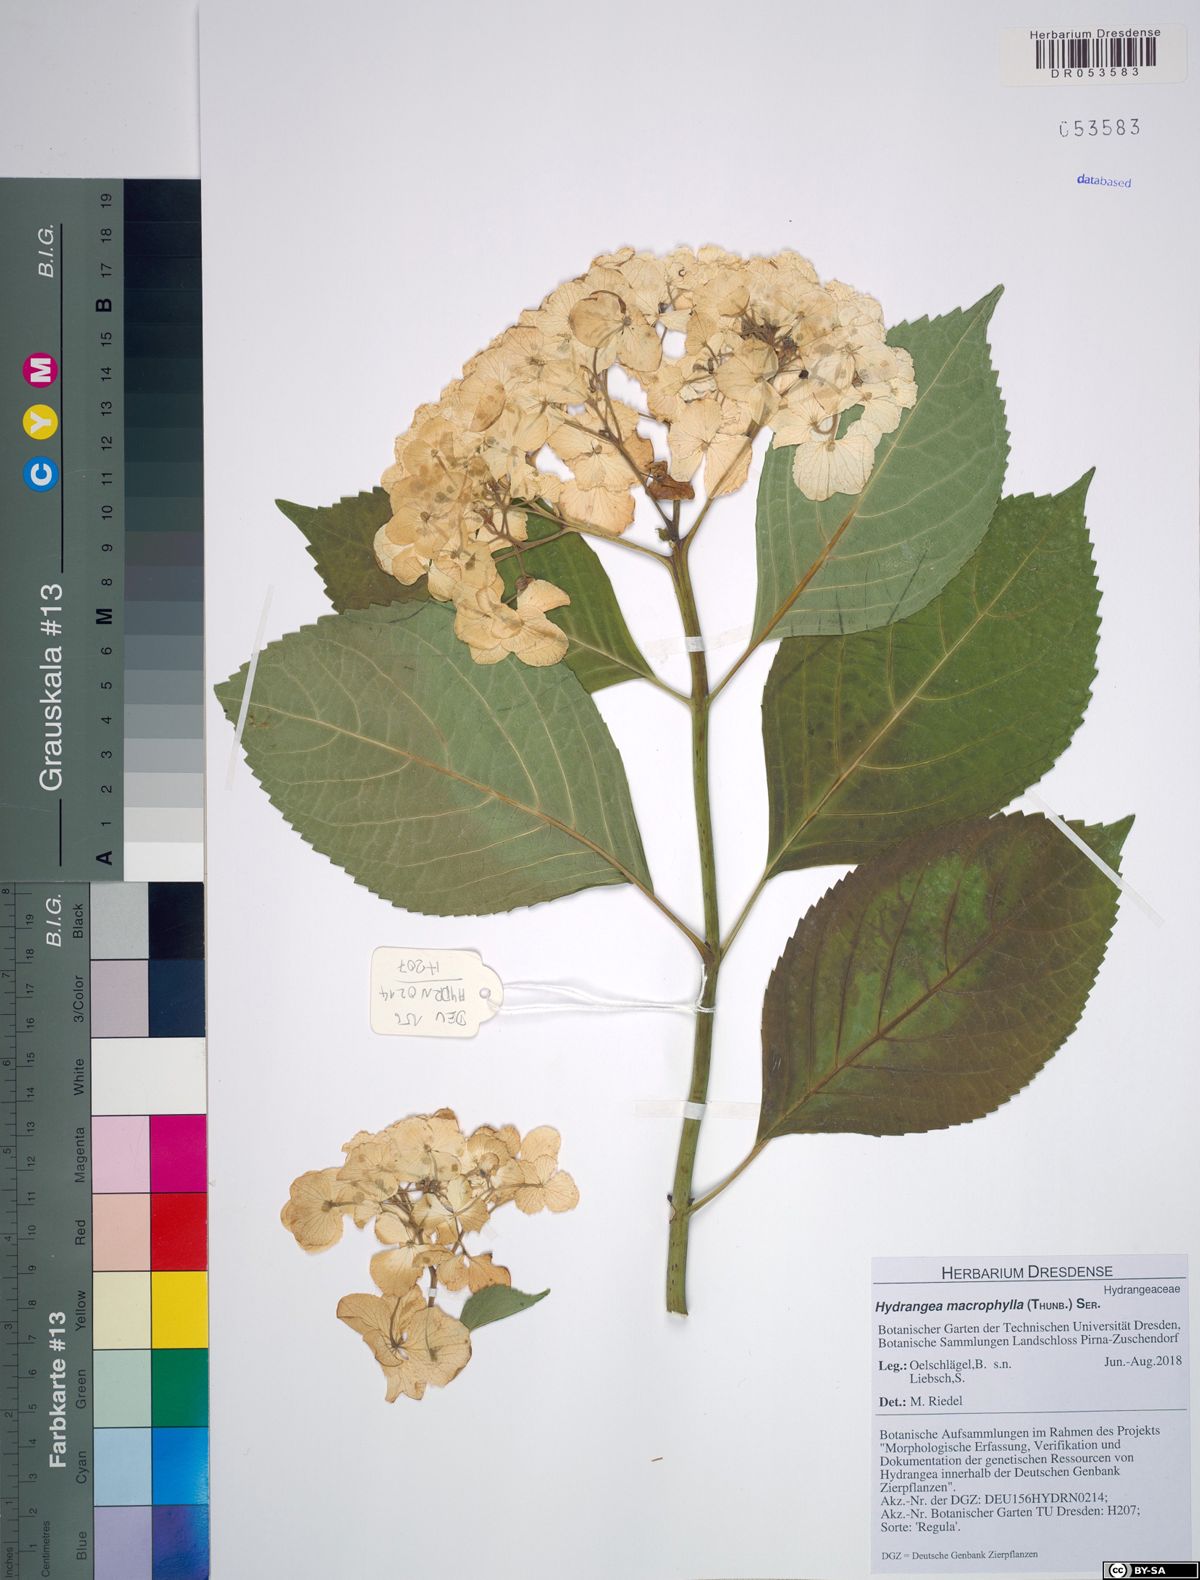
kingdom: Plantae
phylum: Tracheophyta
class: Magnoliopsida
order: Cornales
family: Hydrangeaceae
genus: Hydrangea
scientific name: Hydrangea macrophylla
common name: Hydrangea
